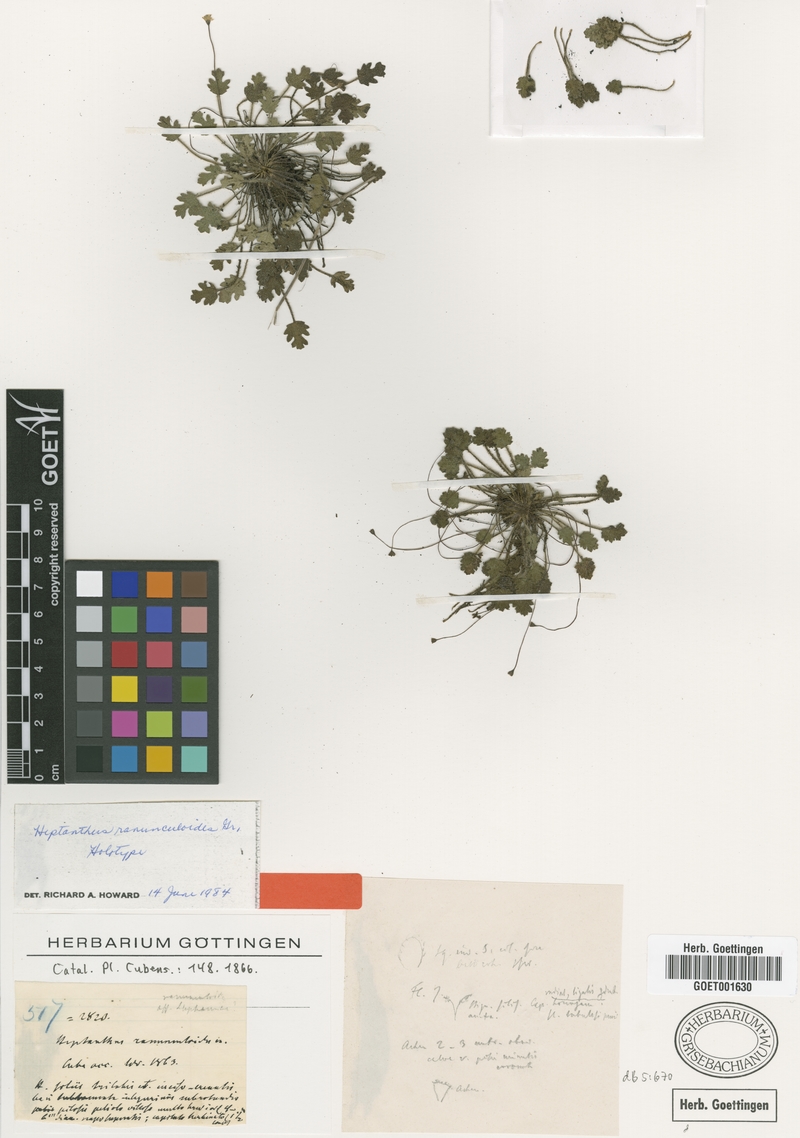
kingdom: Plantae
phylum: Tracheophyta
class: Magnoliopsida
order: Asterales
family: Asteraceae
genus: Heptanthus
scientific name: Heptanthus ranunculoides
